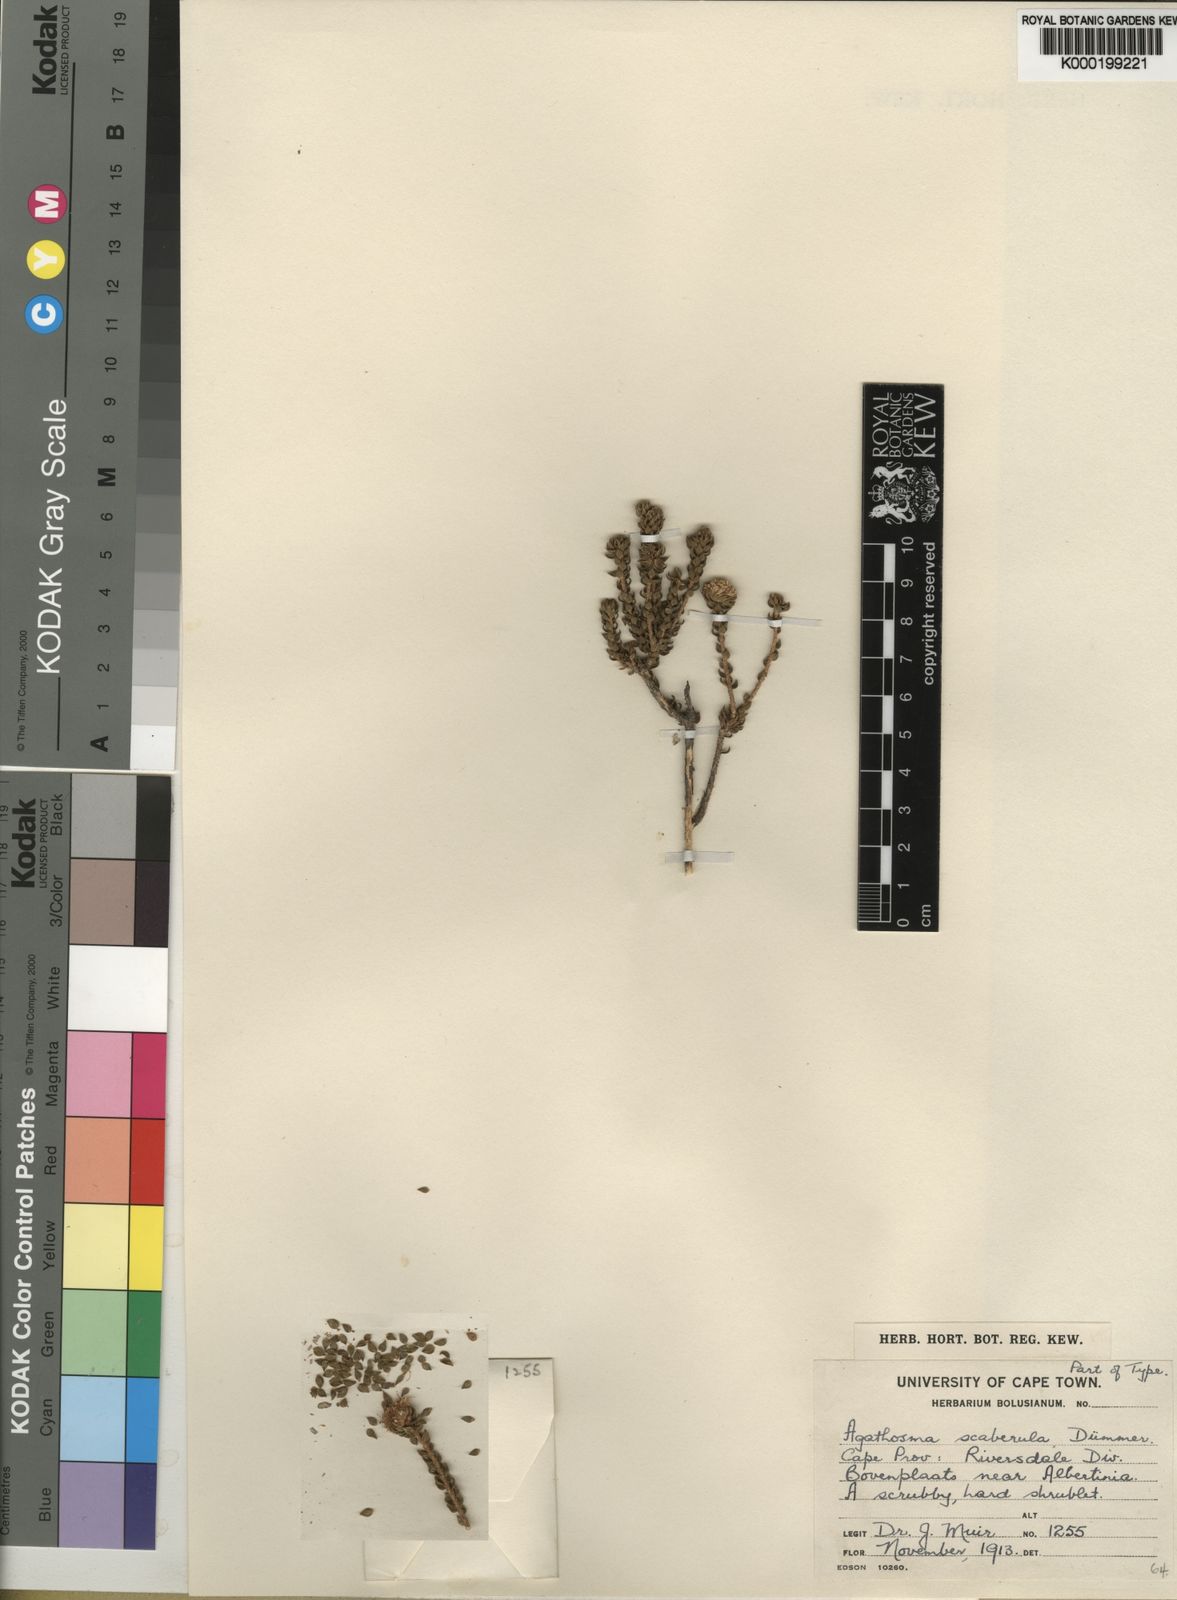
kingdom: Plantae
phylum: Tracheophyta
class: Magnoliopsida
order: Sapindales
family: Rutaceae
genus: Agathosma
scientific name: Agathosma scaberula
